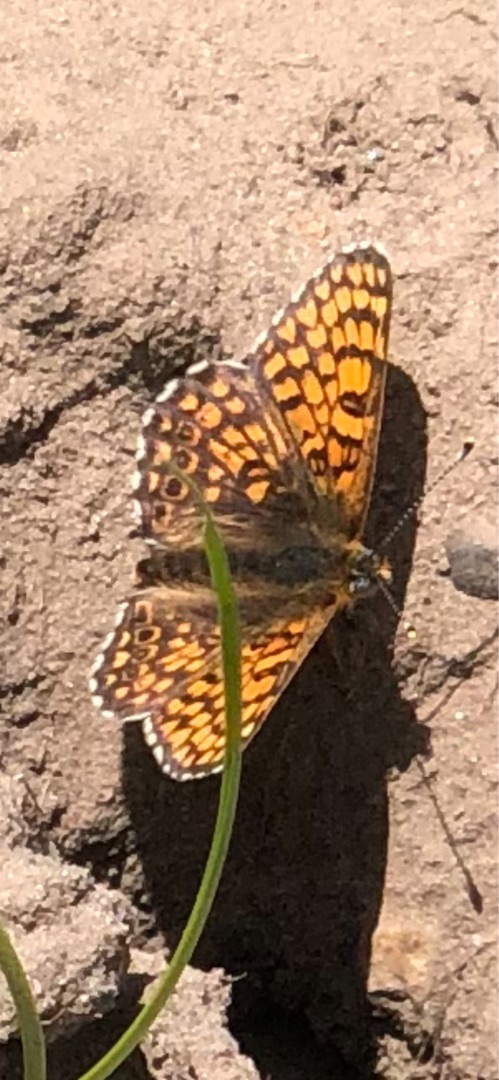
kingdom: Animalia
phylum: Arthropoda
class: Insecta
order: Lepidoptera
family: Nymphalidae
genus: Melitaea
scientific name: Melitaea cinxia
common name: Okkergul pletvinge
